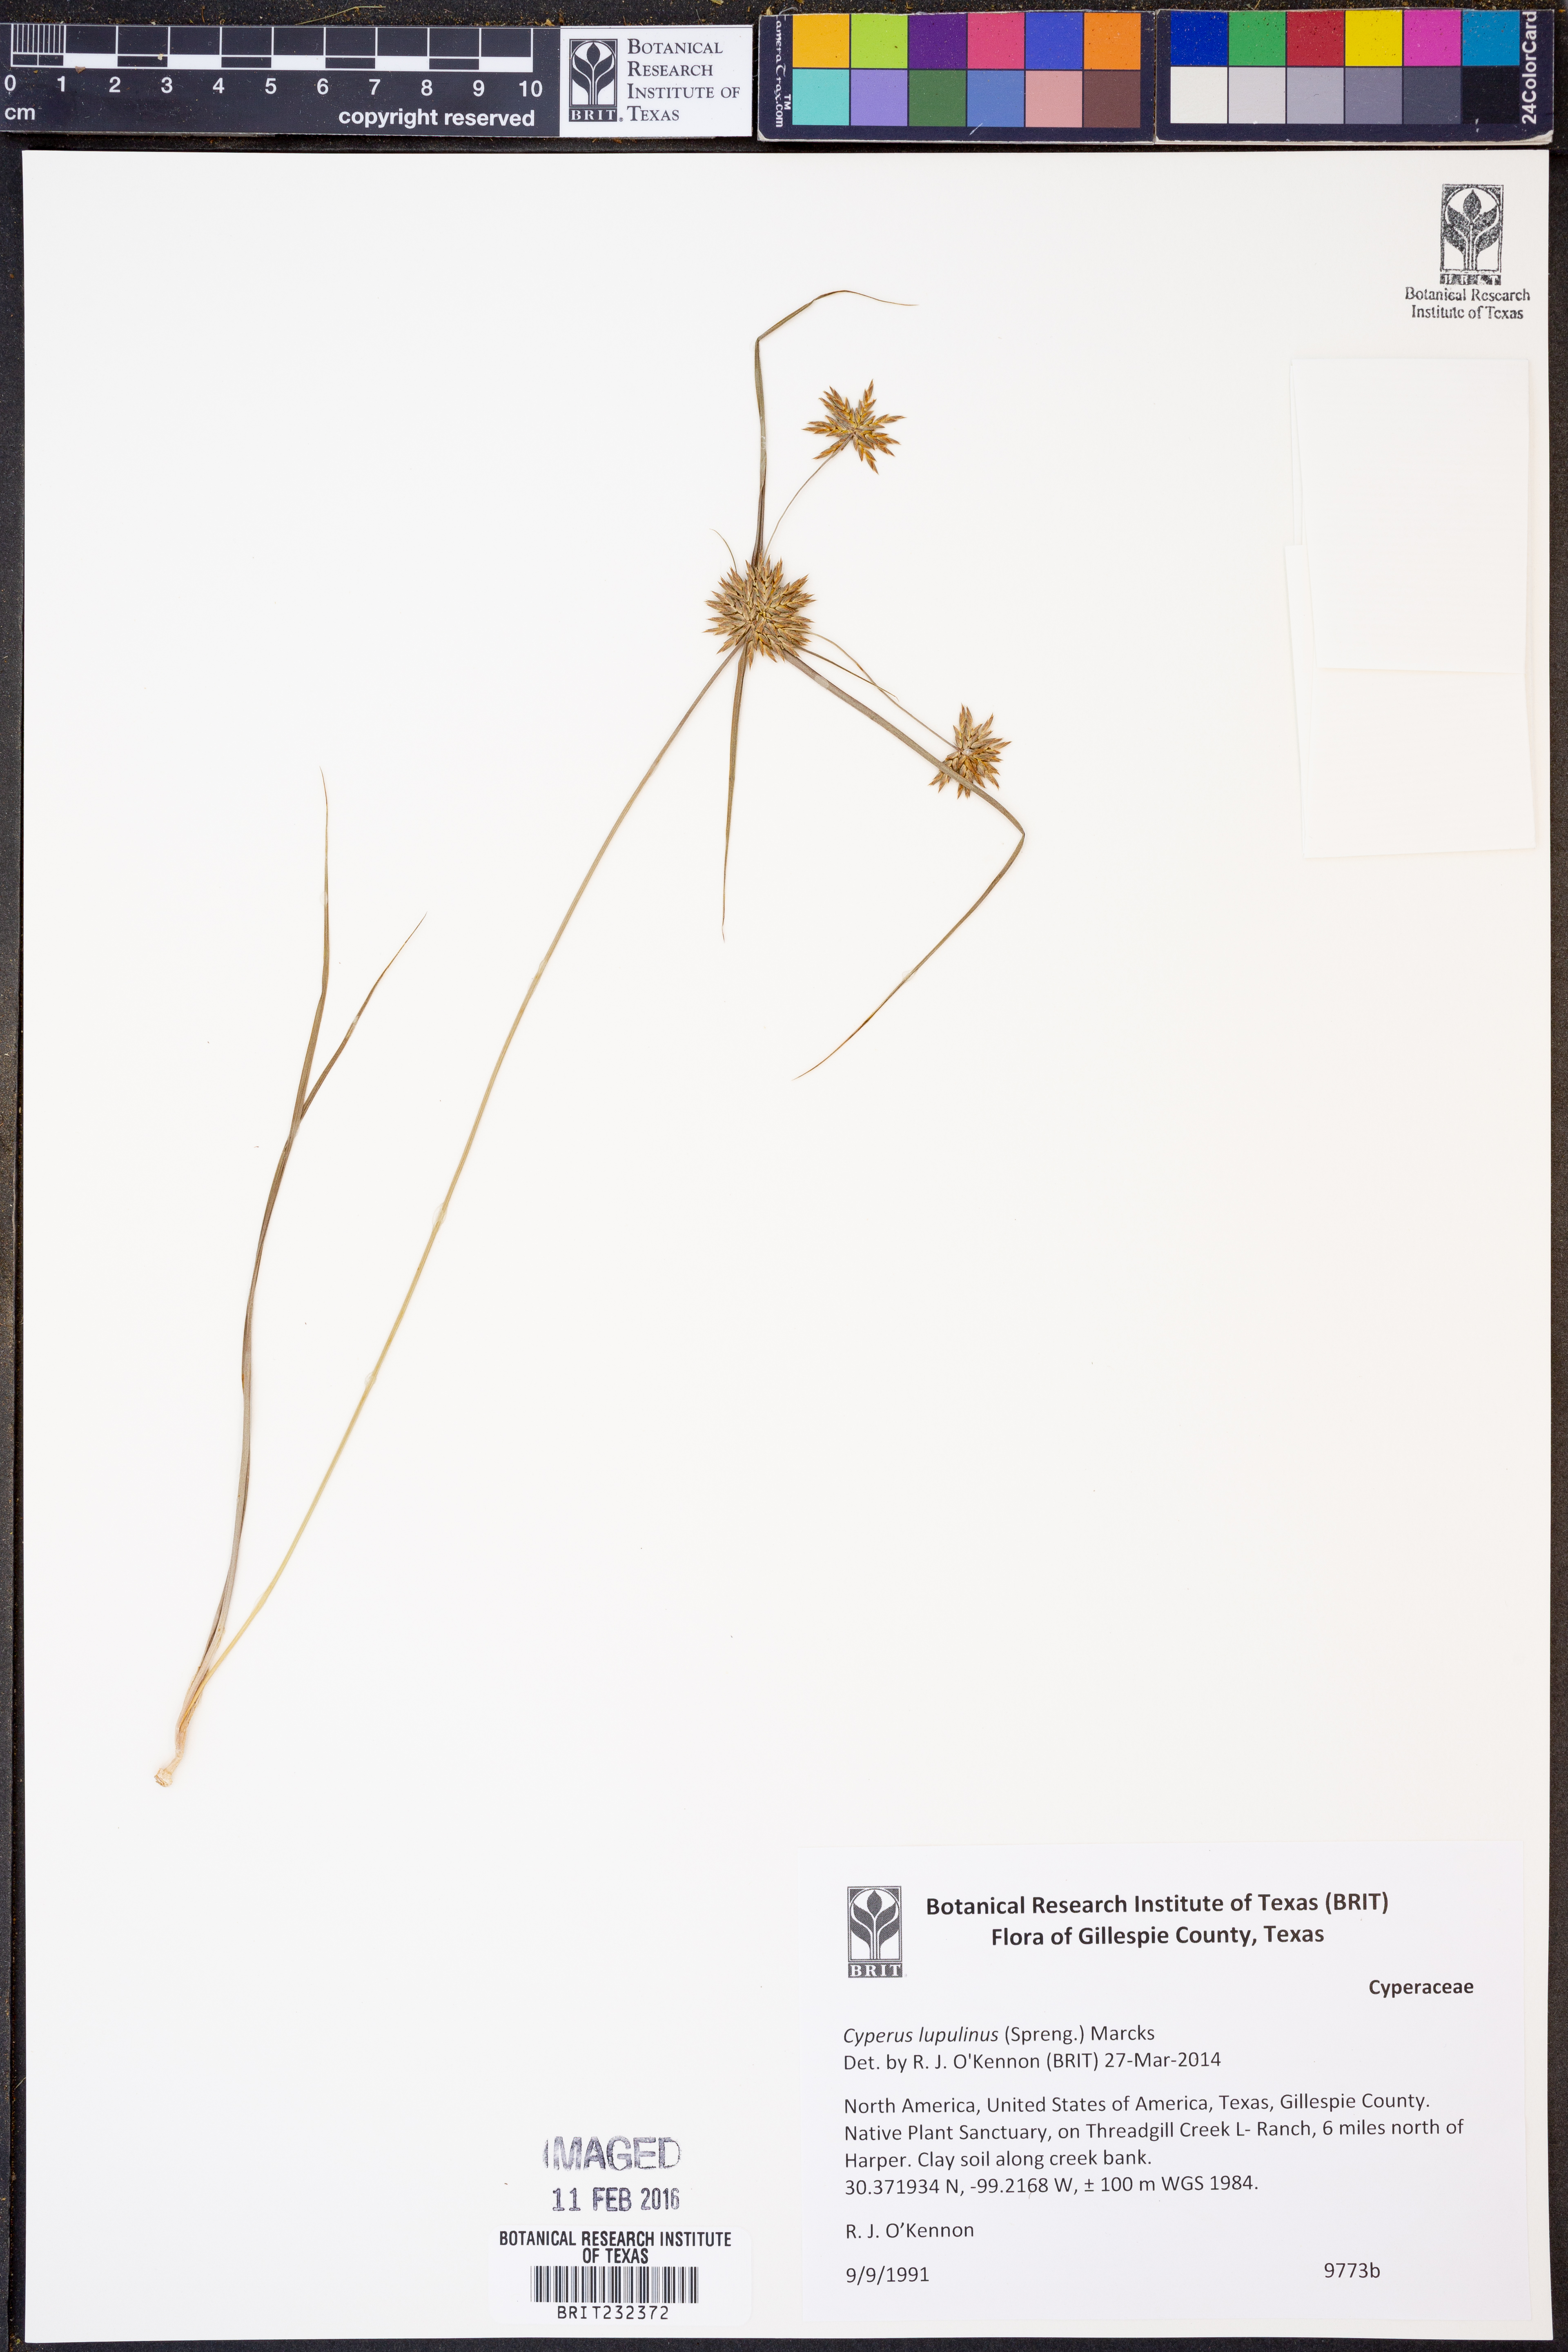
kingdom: Plantae
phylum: Tracheophyta
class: Liliopsida
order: Poales
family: Cyperaceae
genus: Cyperus
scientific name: Cyperus lupulinus
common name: Great plains flatsedge
